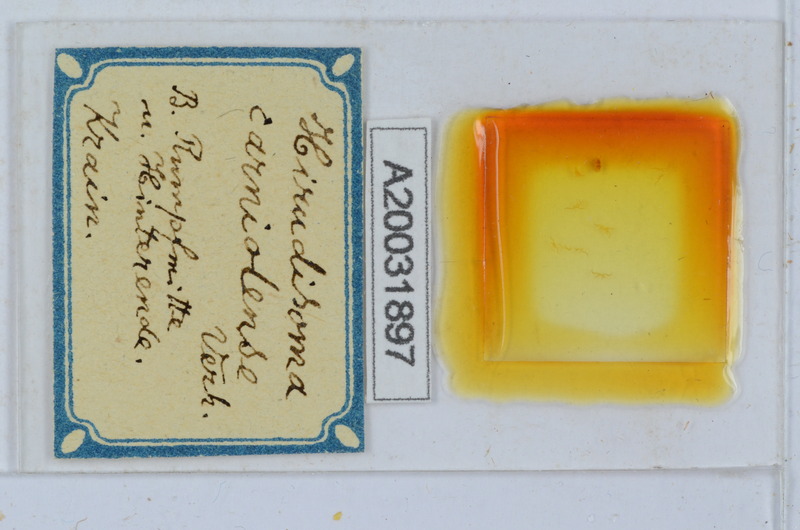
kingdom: Animalia
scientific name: Animalia
